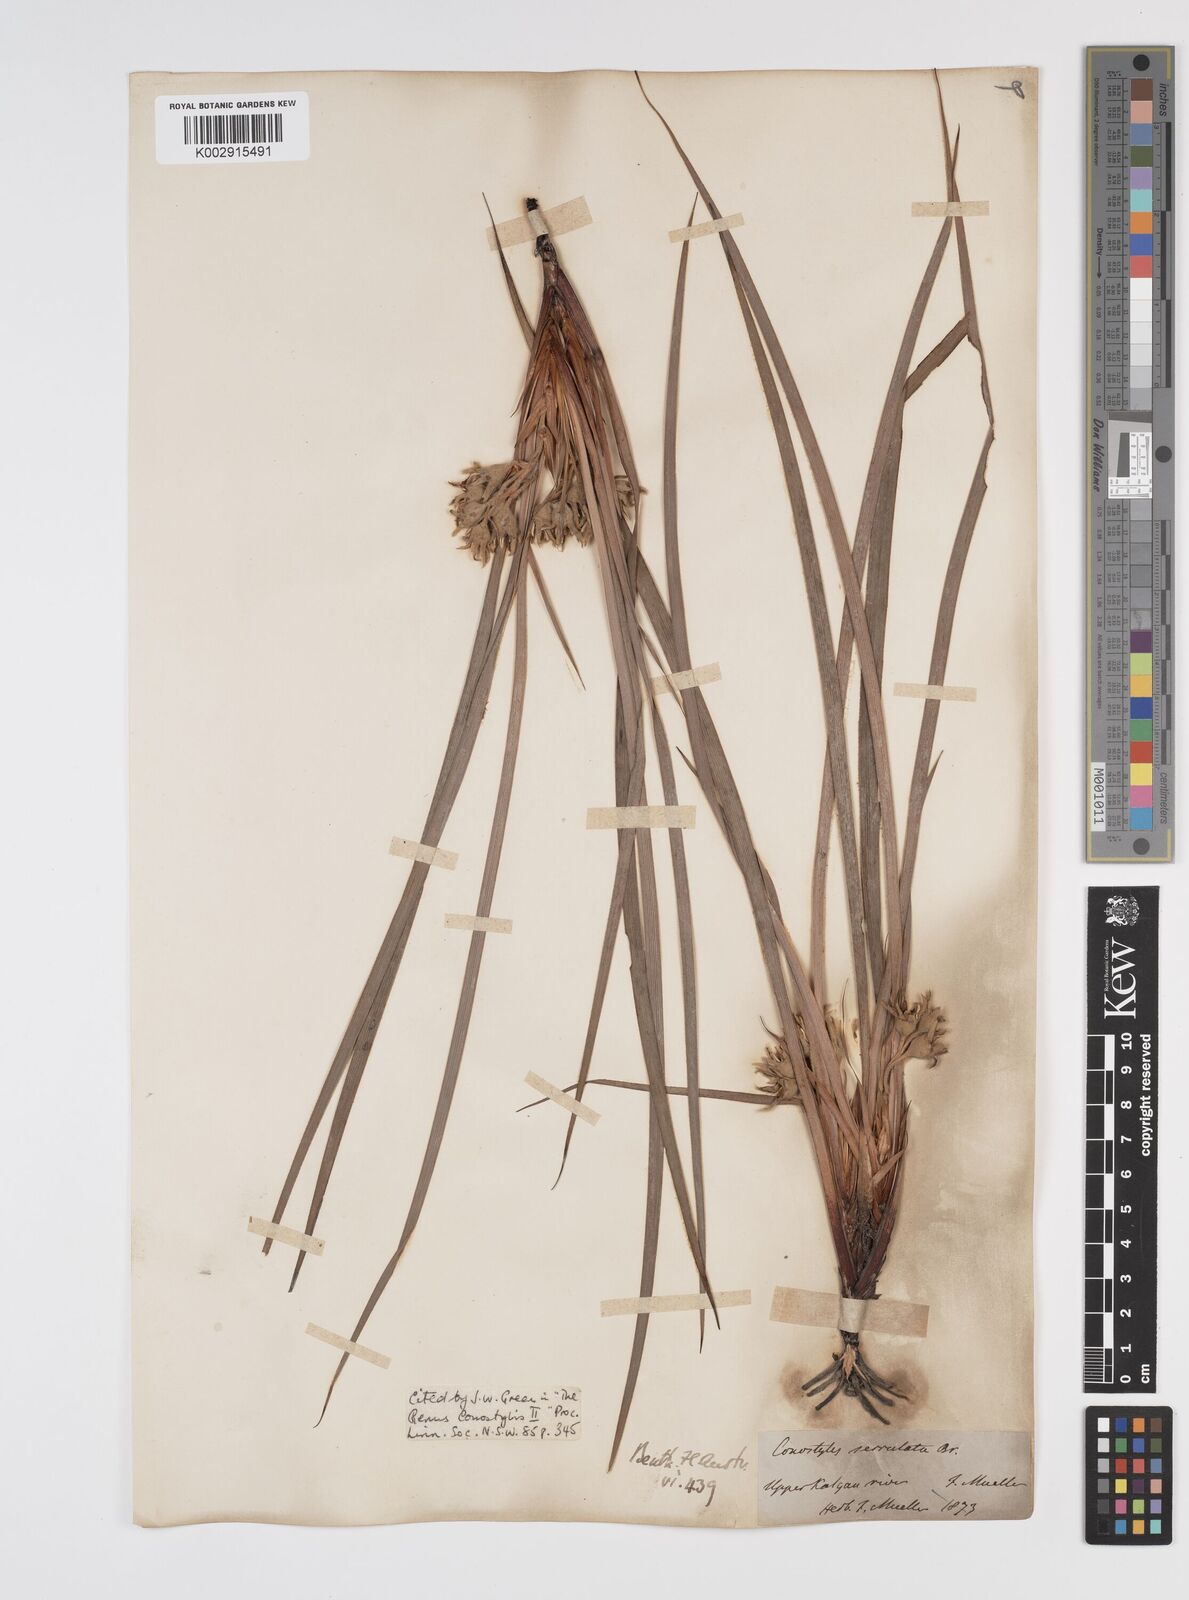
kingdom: Plantae
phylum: Tracheophyta
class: Liliopsida
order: Commelinales
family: Haemodoraceae
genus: Conostylis
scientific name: Conostylis serrulata
